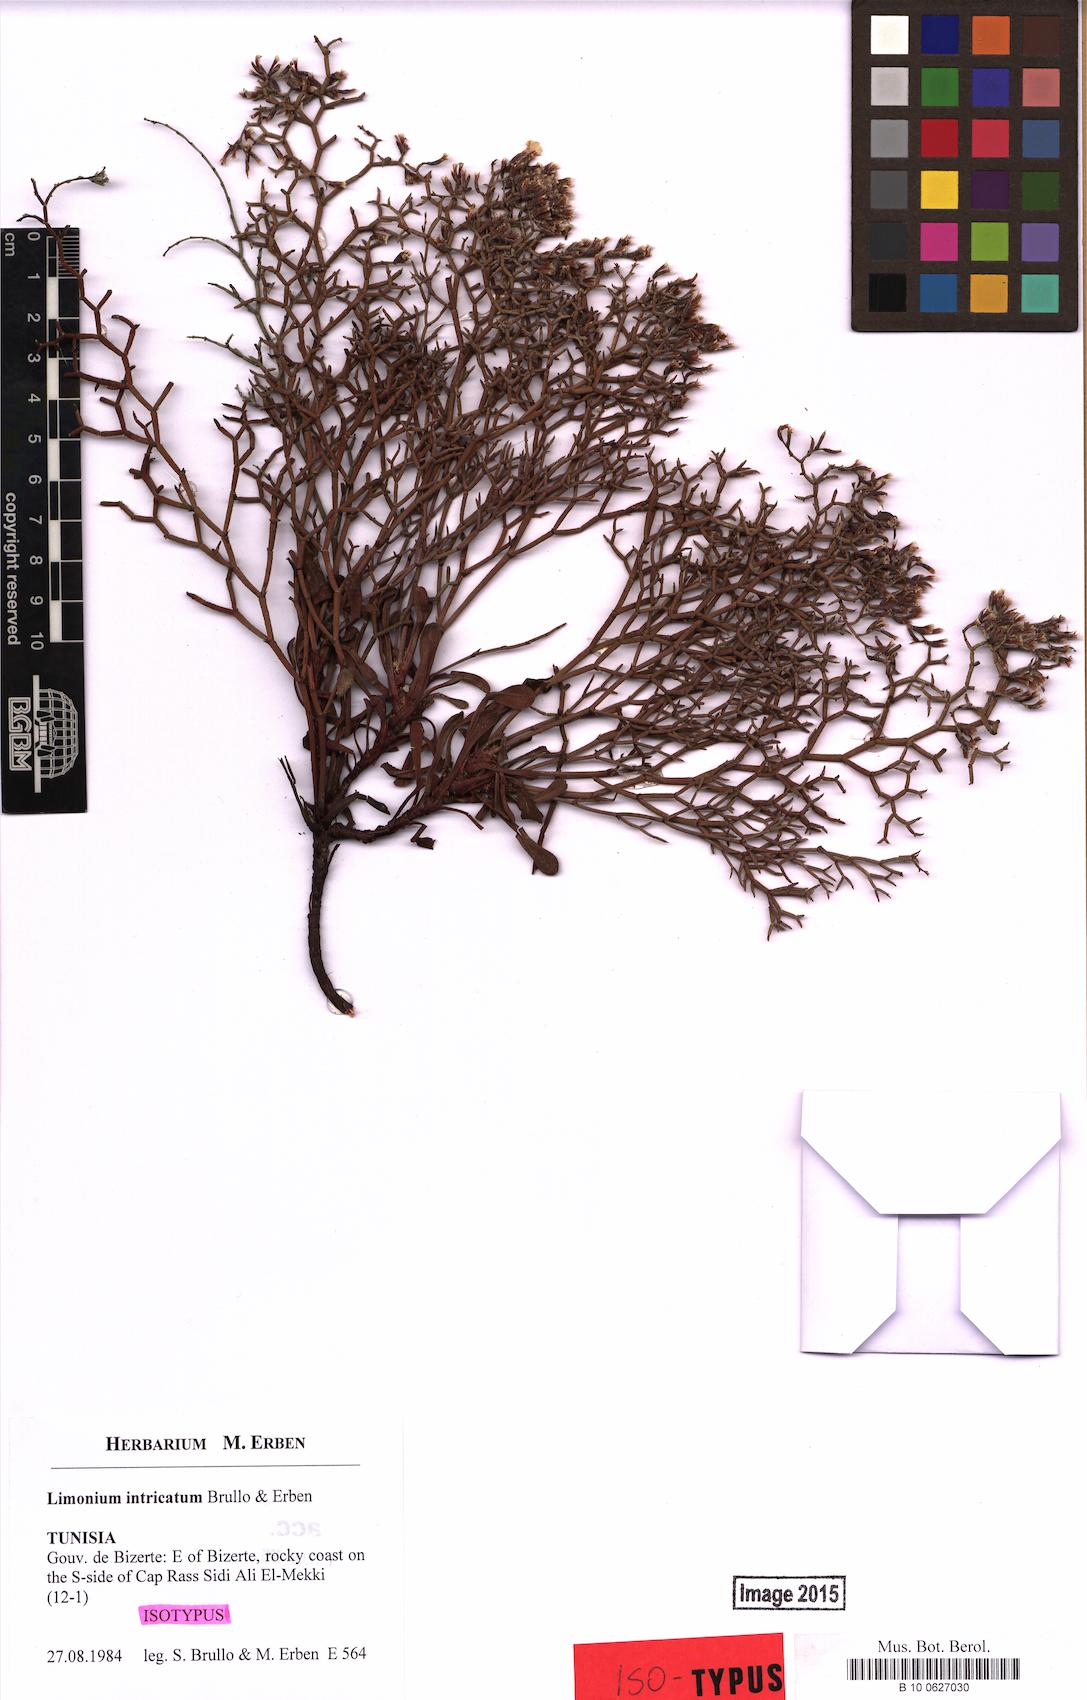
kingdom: Plantae
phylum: Tracheophyta
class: Magnoliopsida
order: Caryophyllales
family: Plumbaginaceae
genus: Limonium
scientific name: Limonium intricatum
